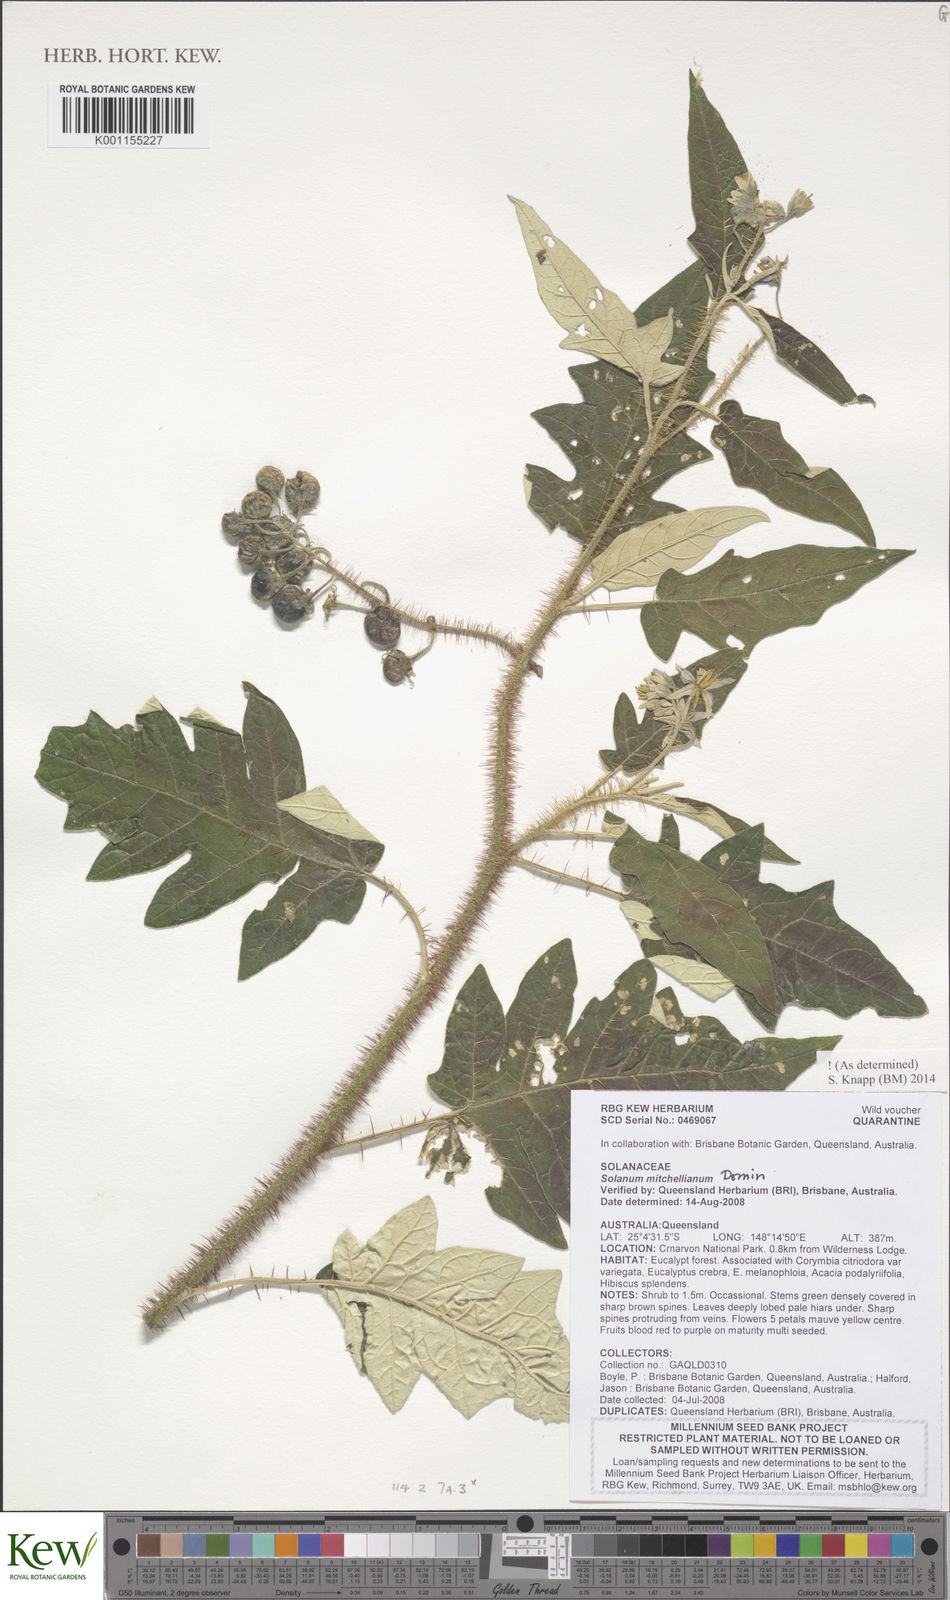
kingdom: Plantae
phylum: Tracheophyta
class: Magnoliopsida
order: Solanales
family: Solanaceae
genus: Solanum
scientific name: Solanum semiarmatum
